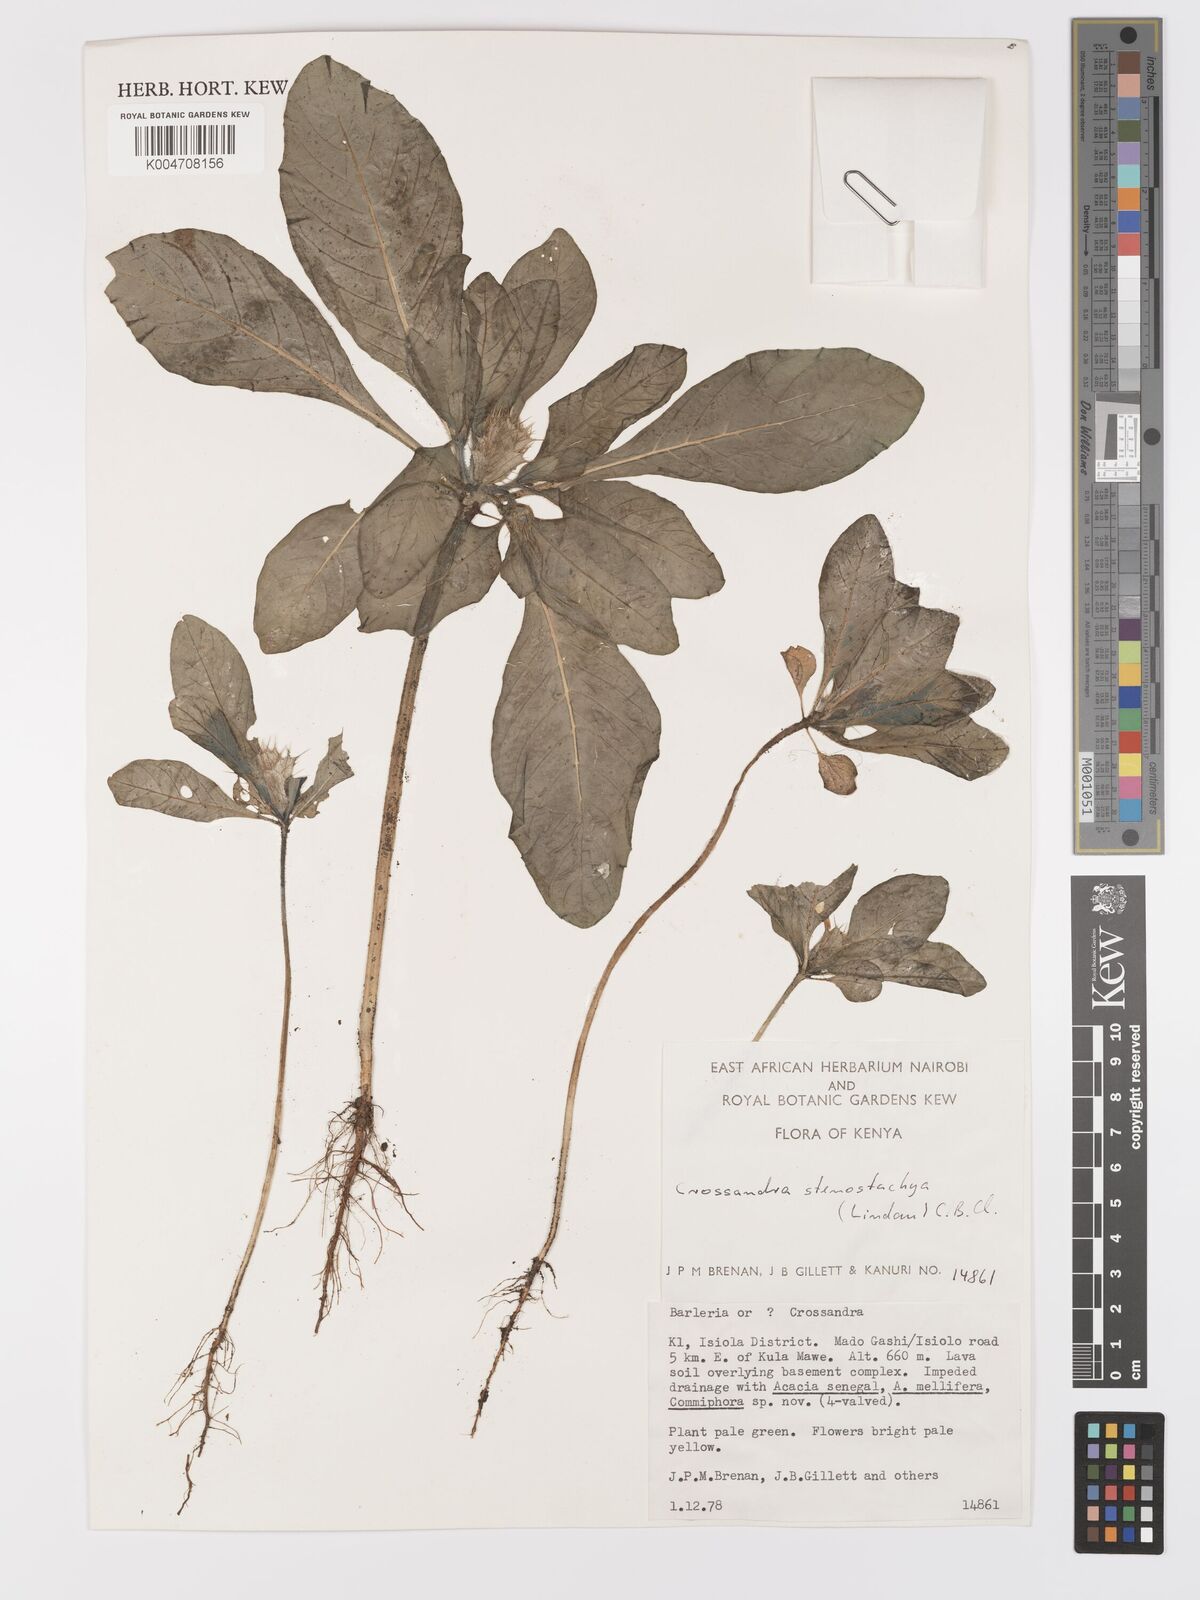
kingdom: Plantae
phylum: Tracheophyta
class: Magnoliopsida
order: Lamiales
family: Acanthaceae
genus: Crossandra
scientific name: Crossandra stenostachya
